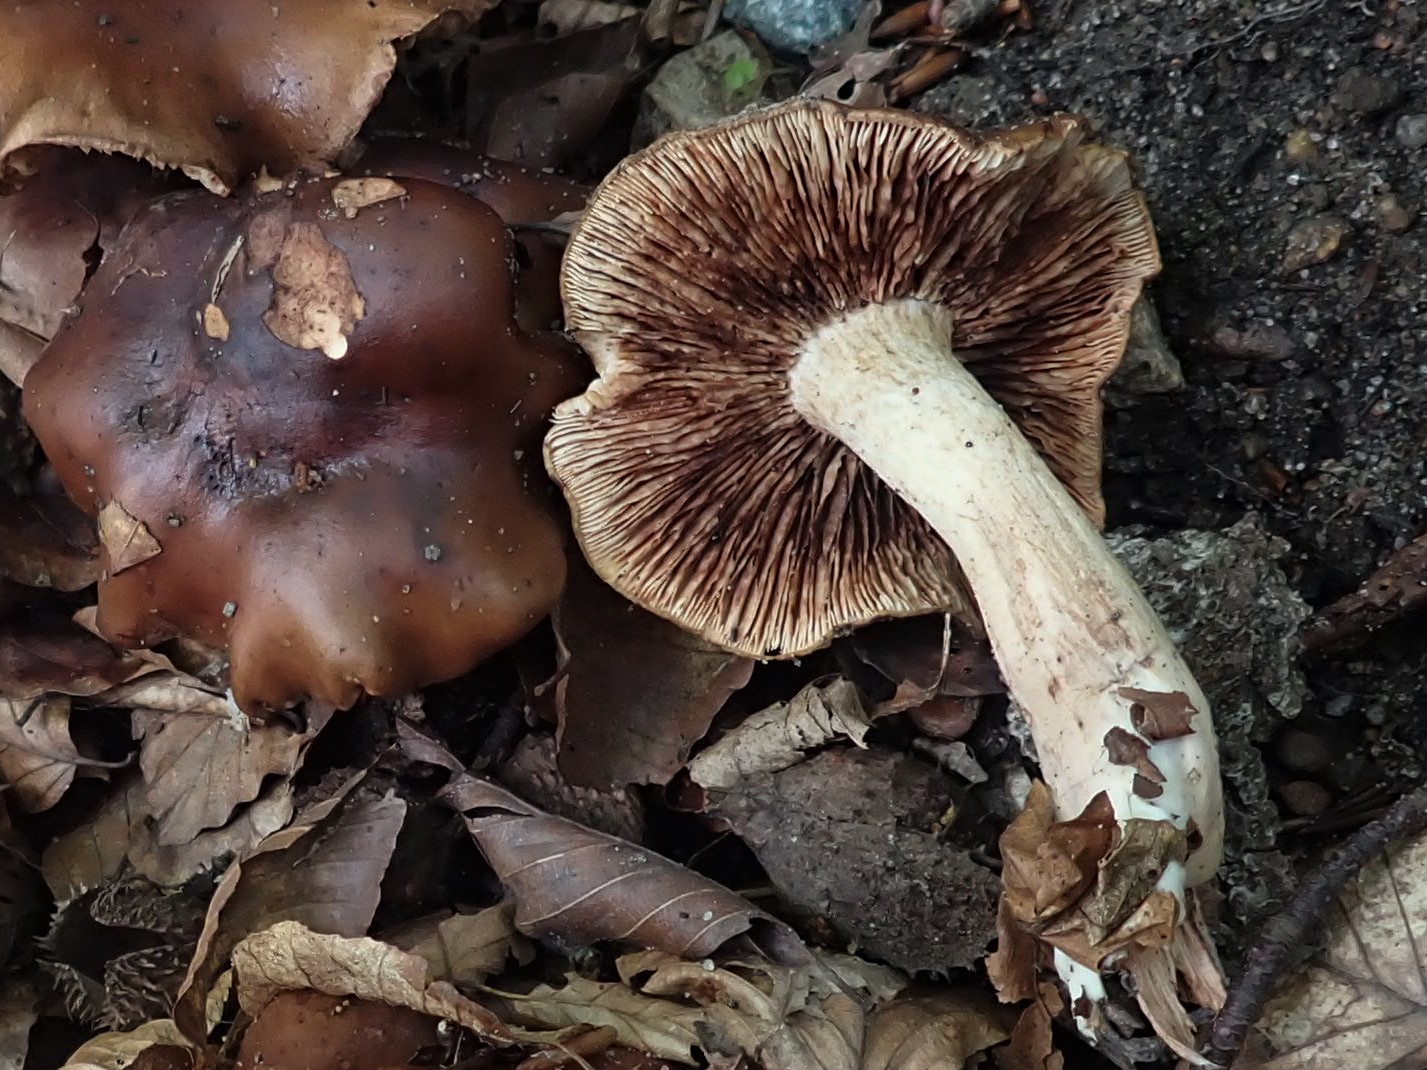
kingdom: Fungi
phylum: Basidiomycota
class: Agaricomycetes
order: Agaricales
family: Tricholomataceae
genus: Tricholoma
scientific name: Tricholoma ustale
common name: sveden ridderhat
